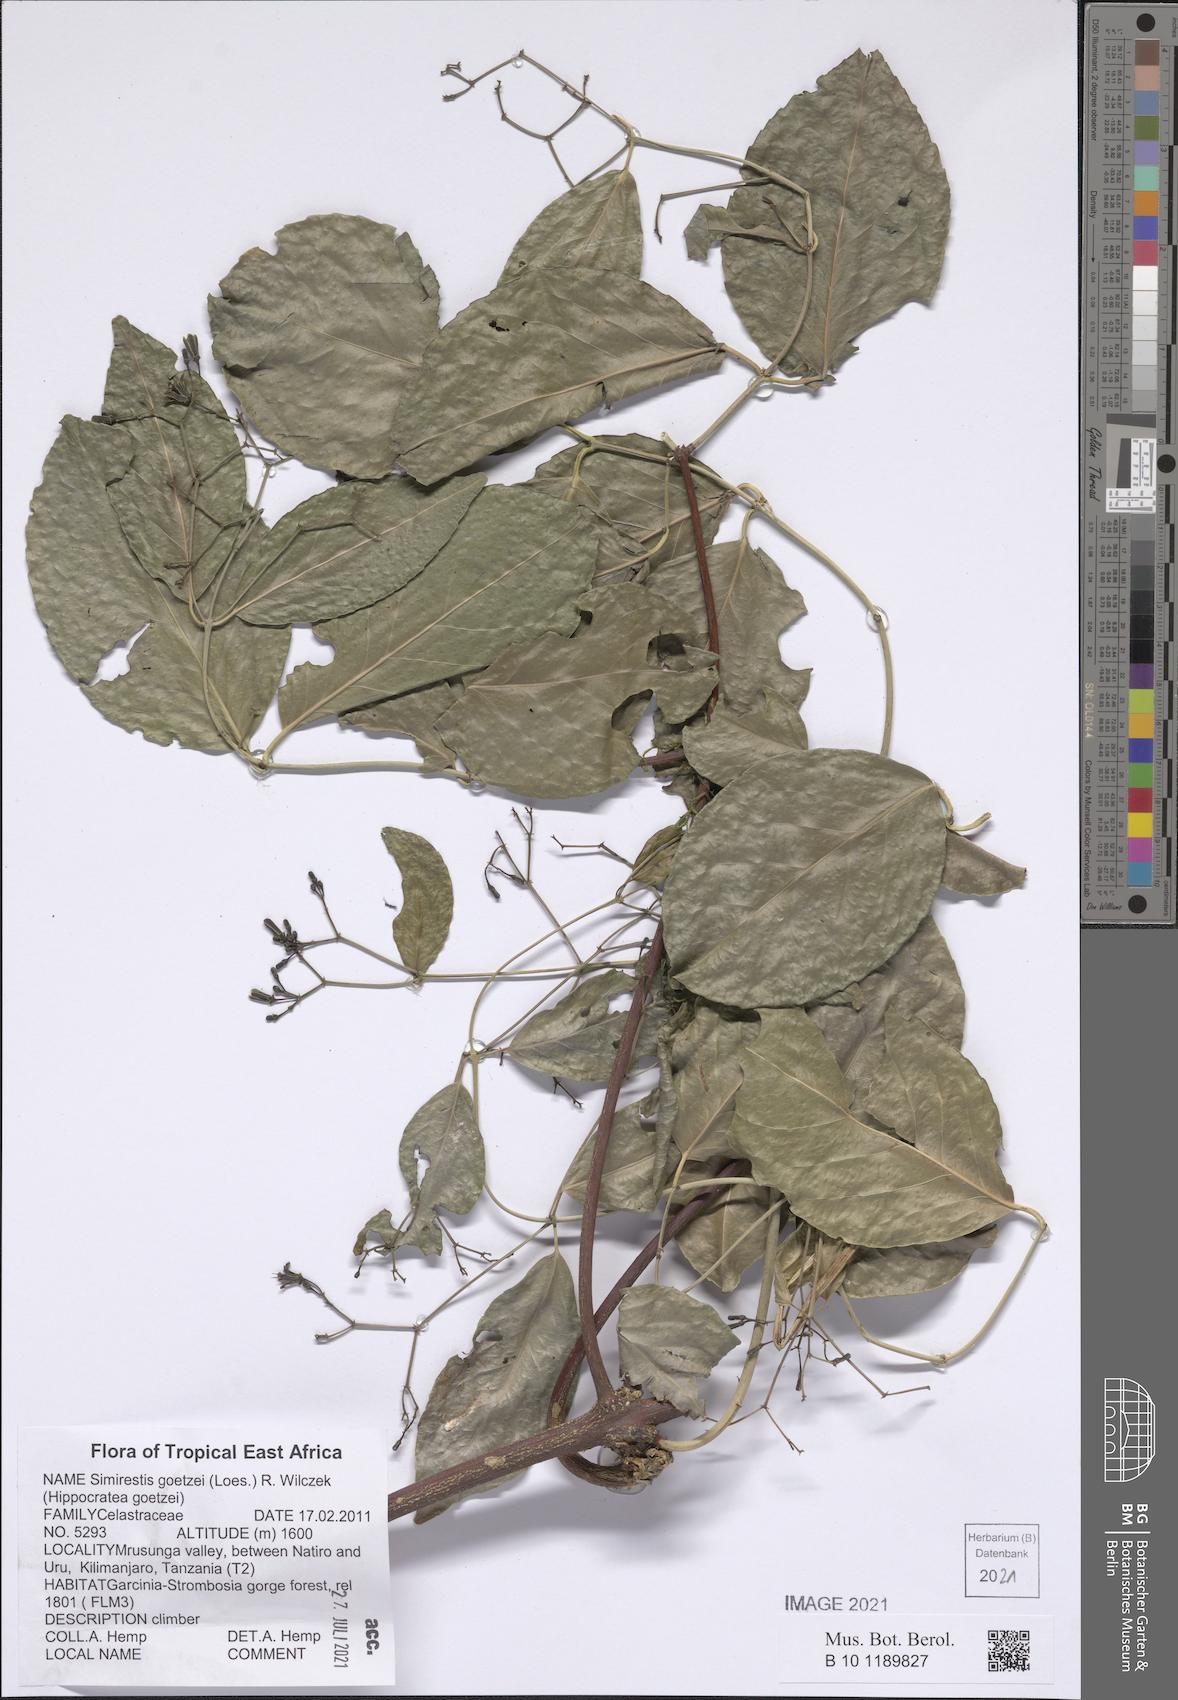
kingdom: Plantae
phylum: Tracheophyta
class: Magnoliopsida
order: Celastrales
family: Celastraceae
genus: Pristimera
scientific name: Pristimera goetzei
